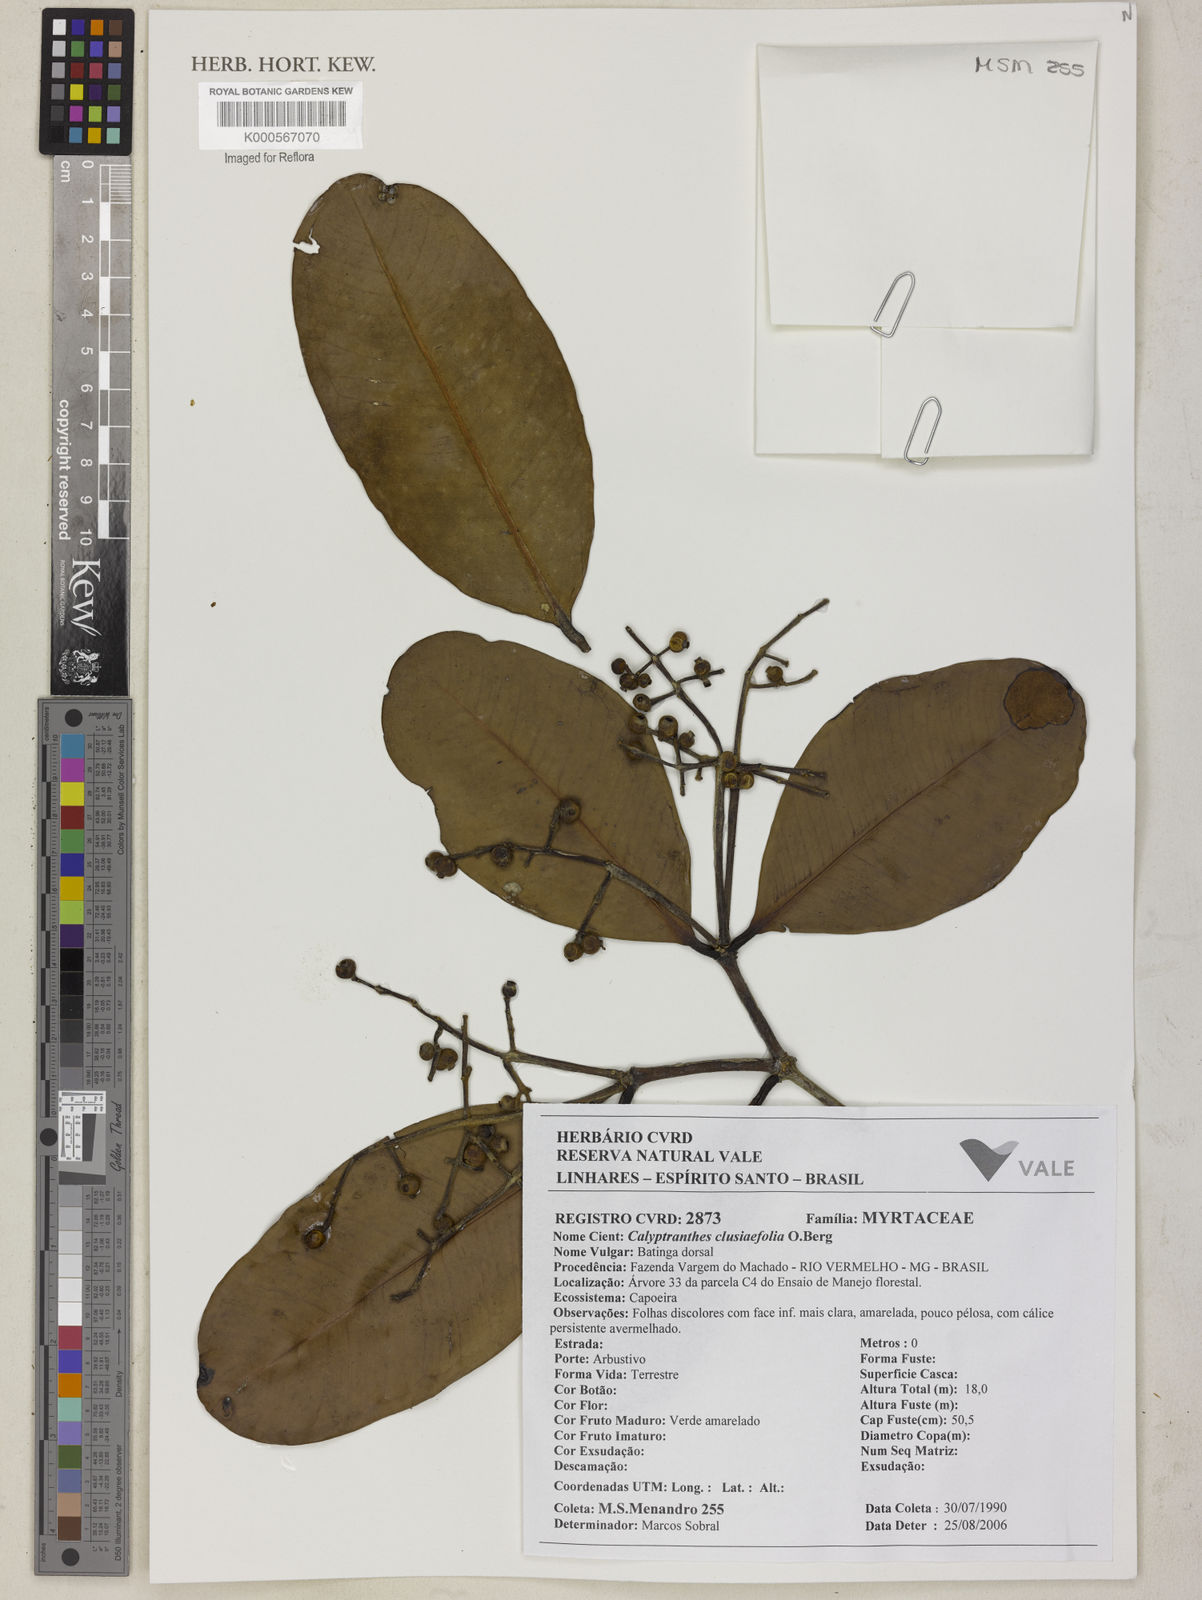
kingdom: Plantae
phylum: Tracheophyta
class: Magnoliopsida
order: Myrtales
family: Myrtaceae
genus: Myrcia
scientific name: Myrcia neoclusiifolia
